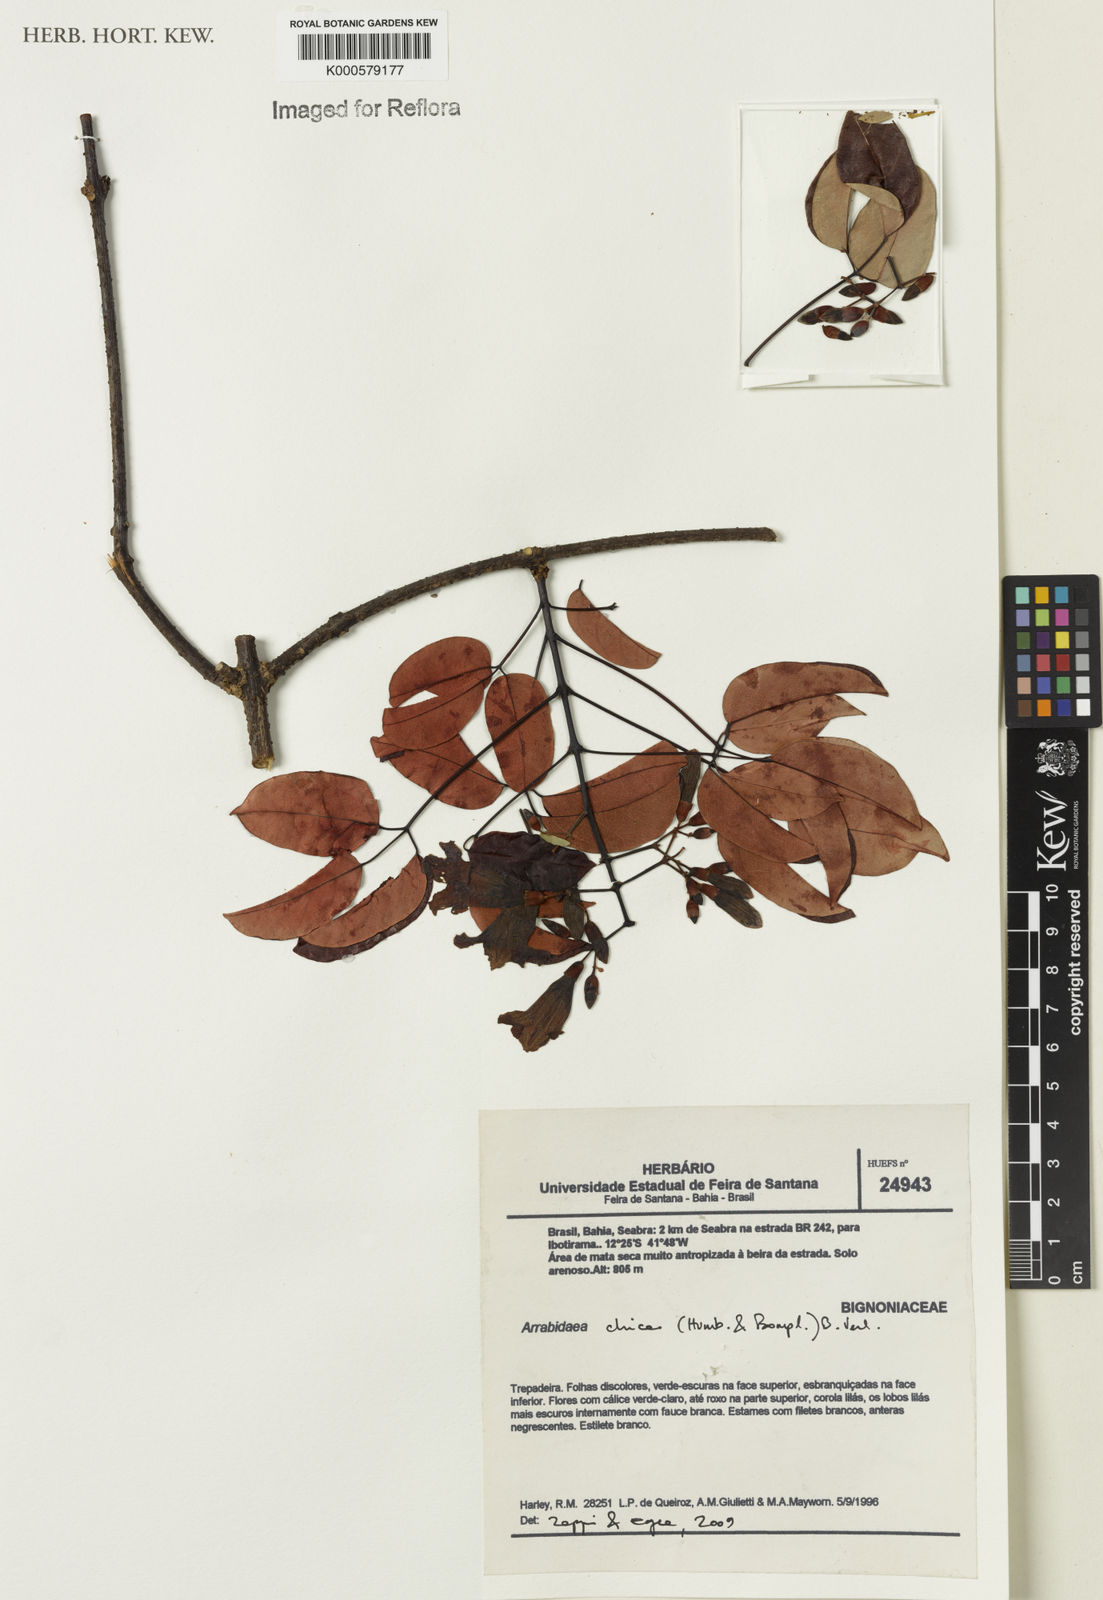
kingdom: Plantae
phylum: Tracheophyta
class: Magnoliopsida
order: Lamiales
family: Bignoniaceae
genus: Fridericia
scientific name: Fridericia chica
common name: Cricketvine
